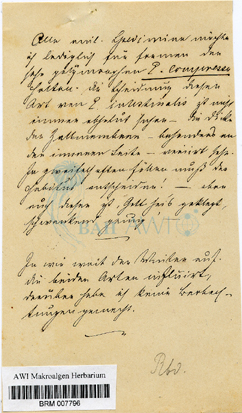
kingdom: Plantae
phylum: Chlorophyta
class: Ulvophyceae
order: Ulvales
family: Ulvaceae
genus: Ulva
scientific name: Ulva
